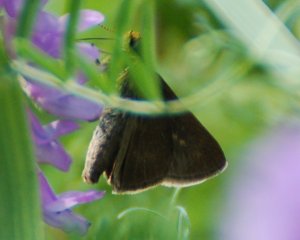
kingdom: Animalia
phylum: Arthropoda
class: Insecta
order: Lepidoptera
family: Hesperiidae
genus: Euphyes
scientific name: Euphyes vestris
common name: Dun Skipper
